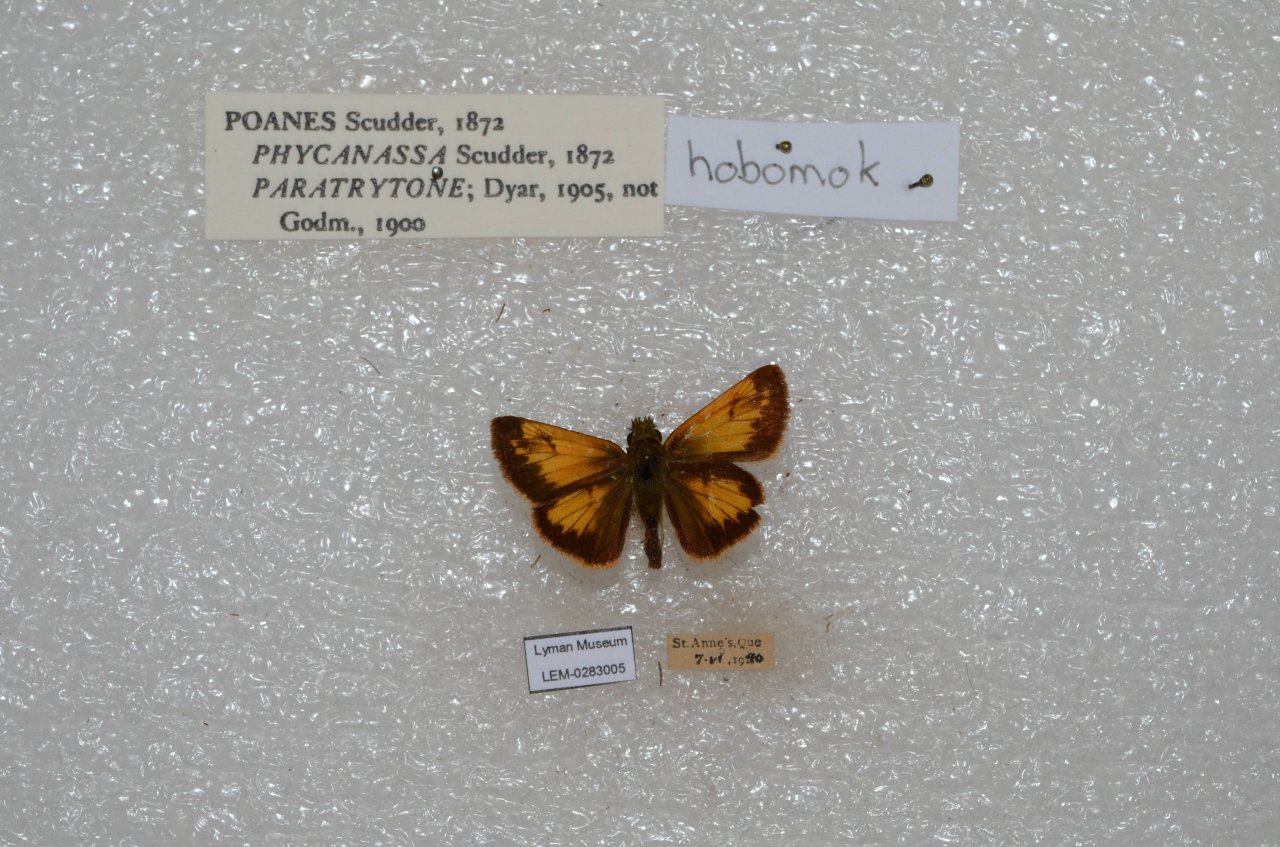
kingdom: Animalia
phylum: Arthropoda
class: Insecta
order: Lepidoptera
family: Hesperiidae
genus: Lon
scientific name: Lon hobomok
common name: Hobomok Skipper
